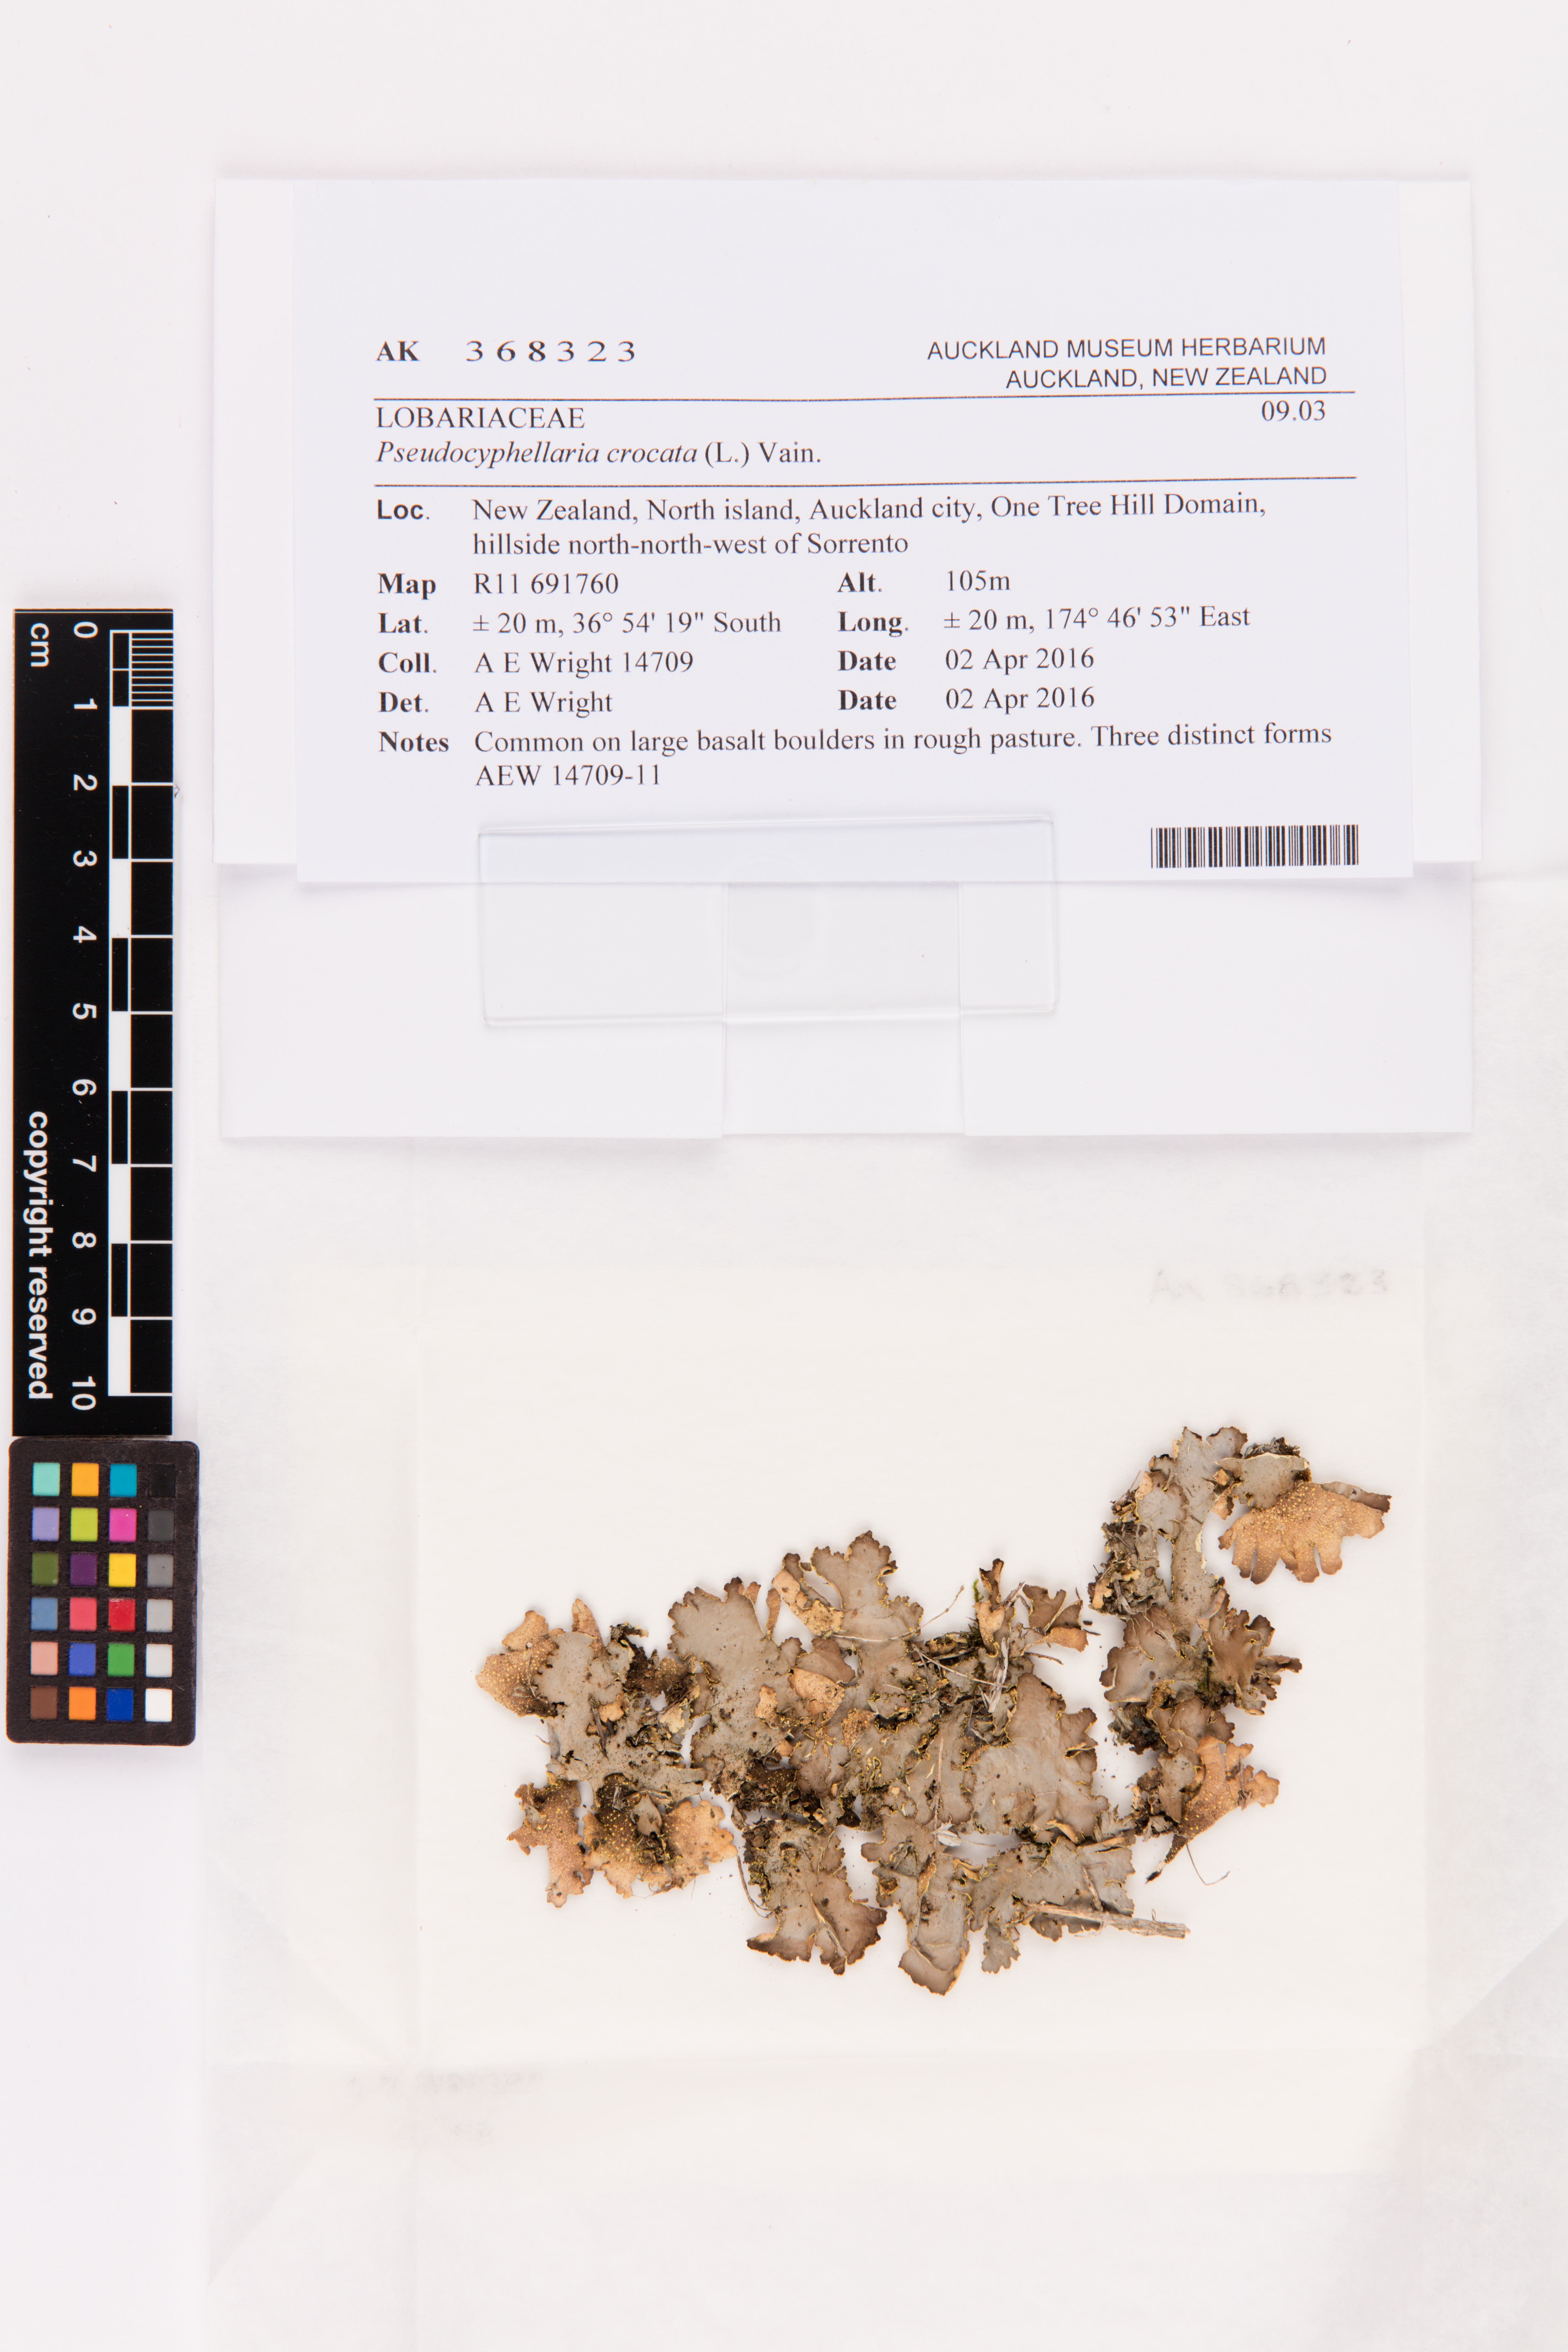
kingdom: Fungi
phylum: Ascomycota
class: Lecanoromycetes
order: Peltigerales
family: Lobariaceae
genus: Pseudocyphellaria
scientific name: Pseudocyphellaria crocata
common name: Golden specklebelly
